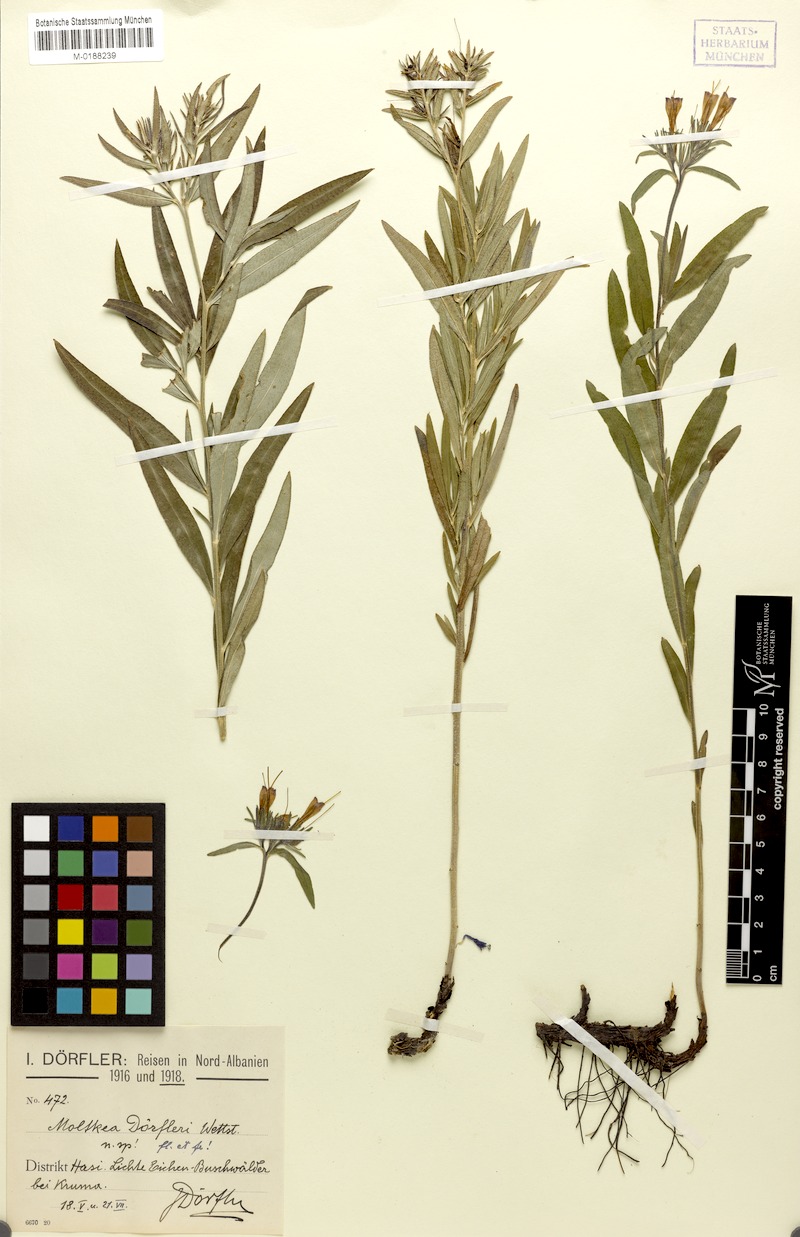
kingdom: Plantae
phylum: Tracheophyta
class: Magnoliopsida
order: Boraginales
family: Boraginaceae
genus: Paramoltkia
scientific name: Paramoltkia doerfleri
